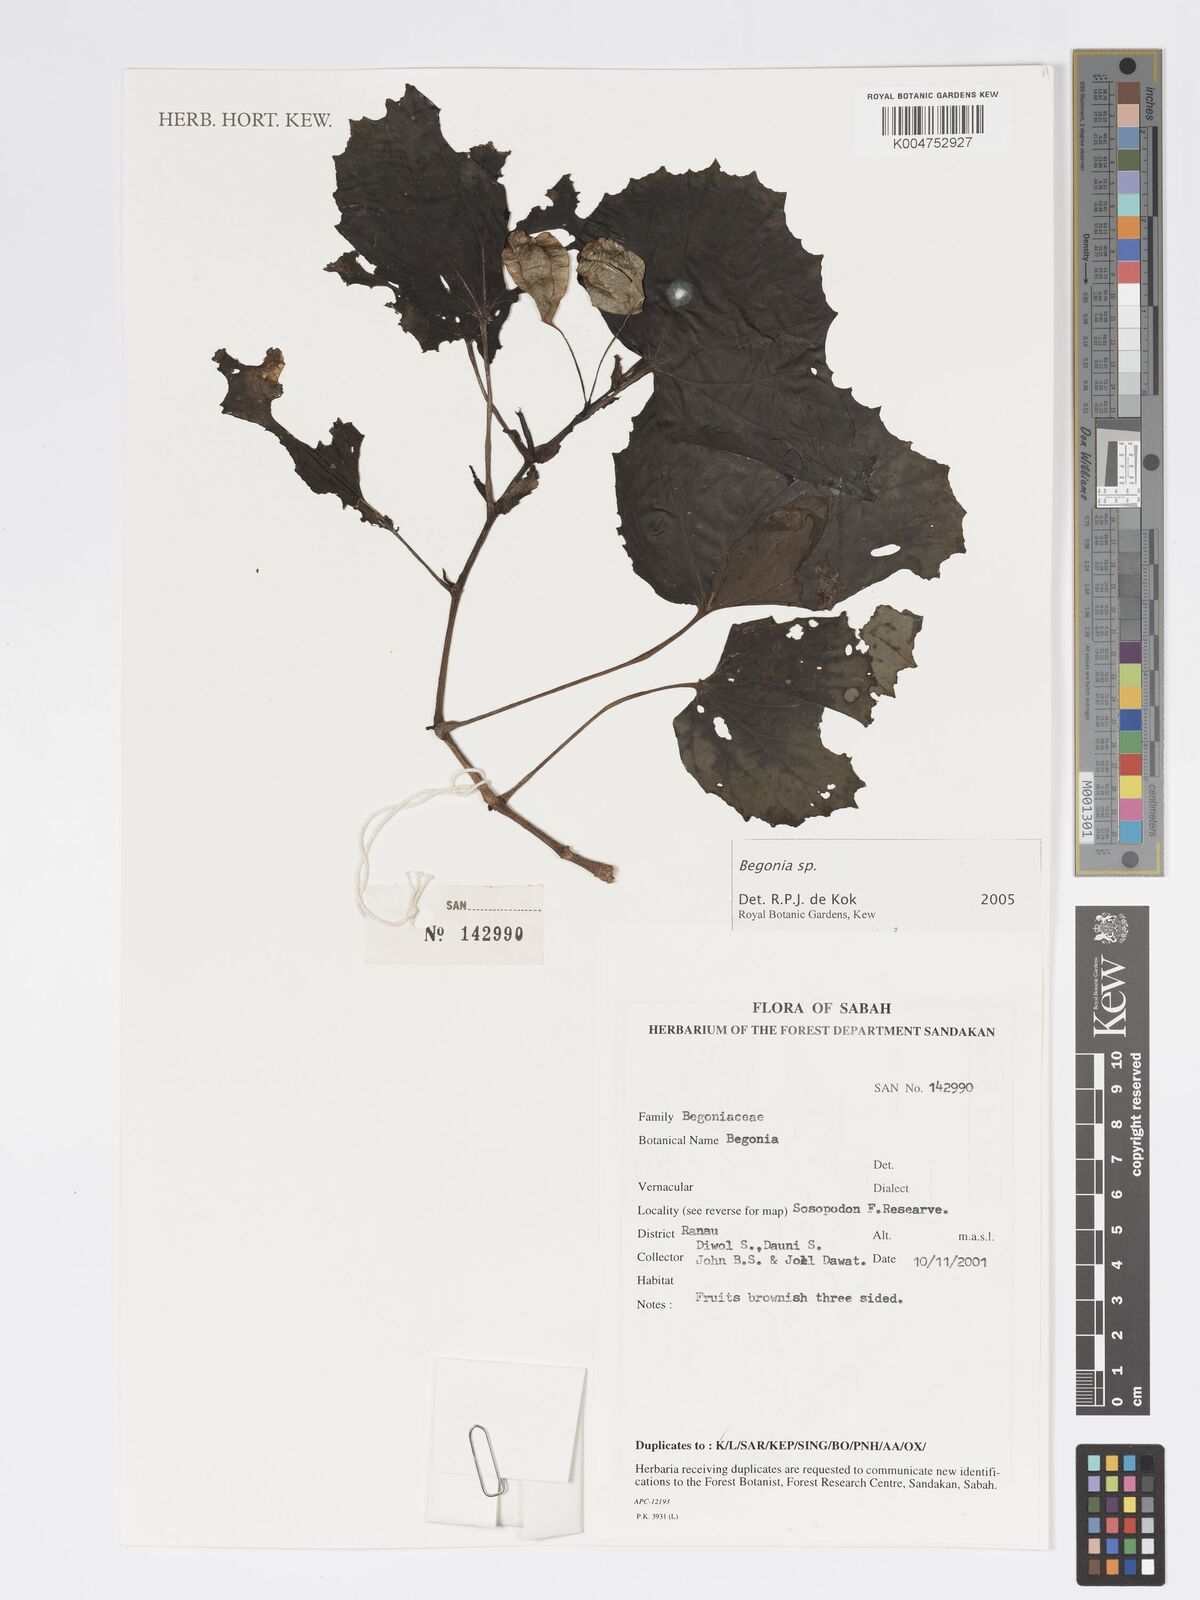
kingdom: Plantae
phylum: Tracheophyta
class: Magnoliopsida
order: Cucurbitales
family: Begoniaceae
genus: Begonia
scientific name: Begonia
